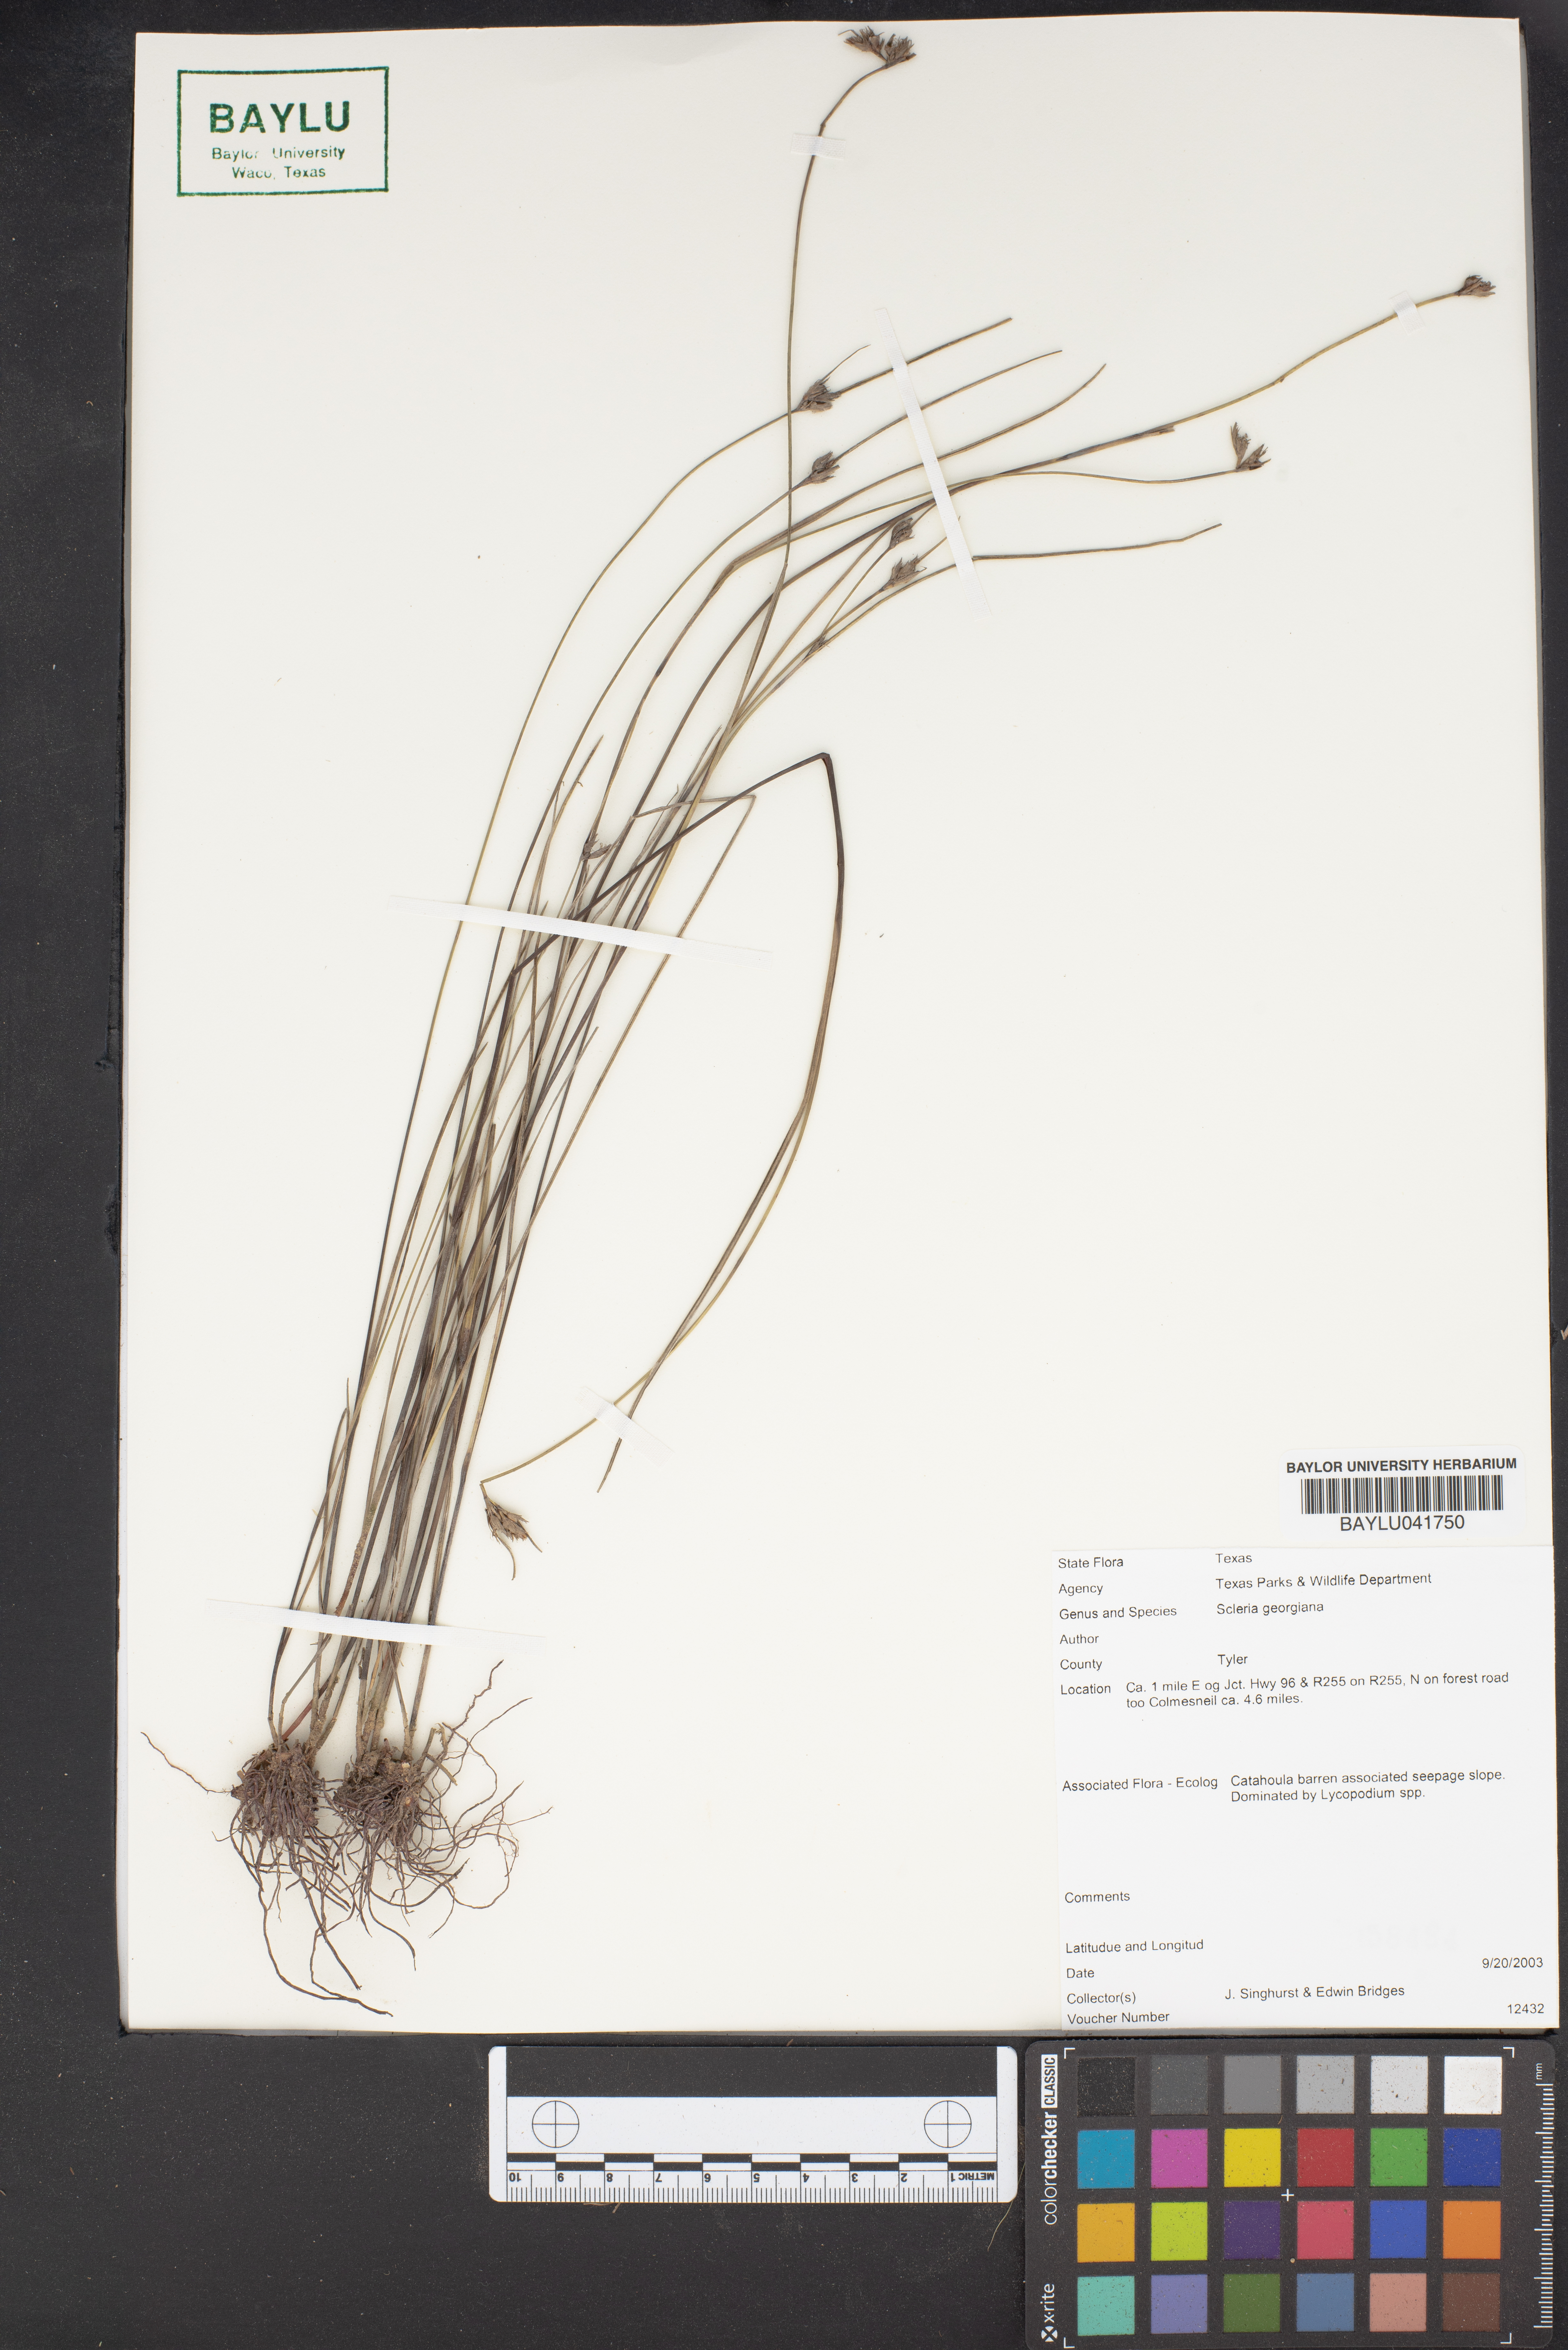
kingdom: Plantae
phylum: Tracheophyta
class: Liliopsida
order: Poales
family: Cyperaceae
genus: Scleria
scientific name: Scleria georgiana
